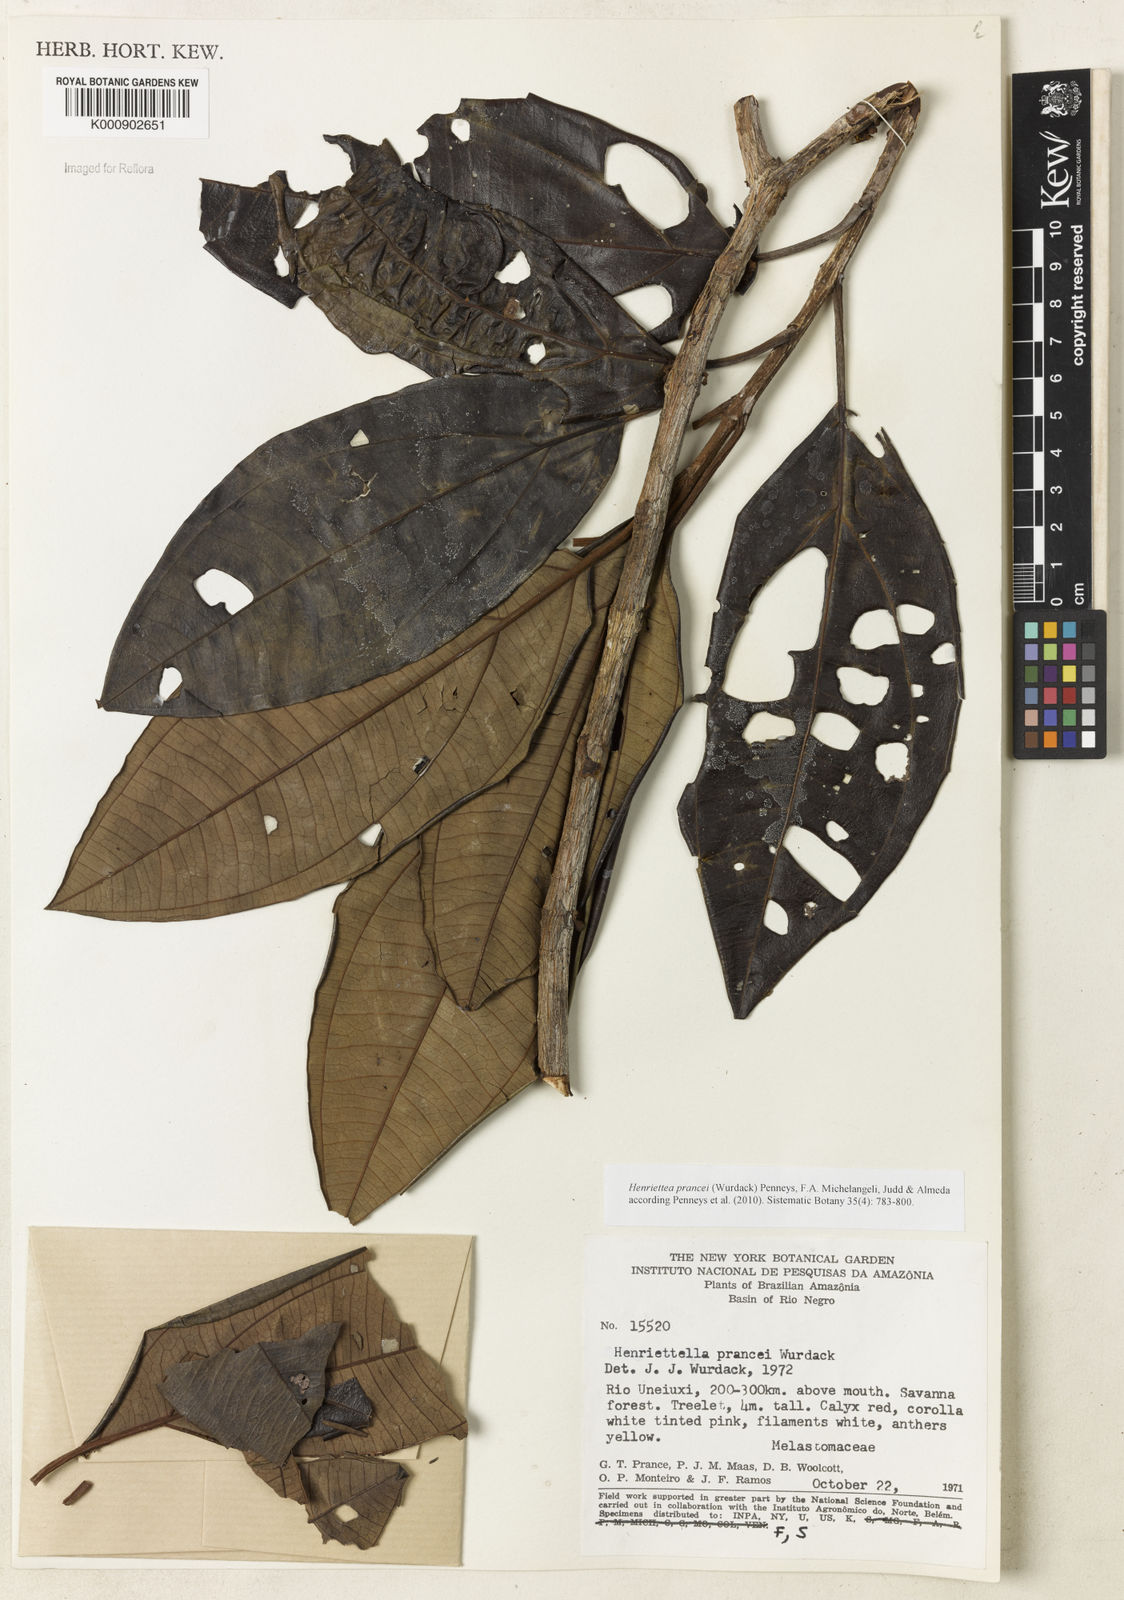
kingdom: Plantae
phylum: Tracheophyta
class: Magnoliopsida
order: Myrtales
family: Melastomataceae
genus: Henriettea
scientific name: Henriettea prancei
